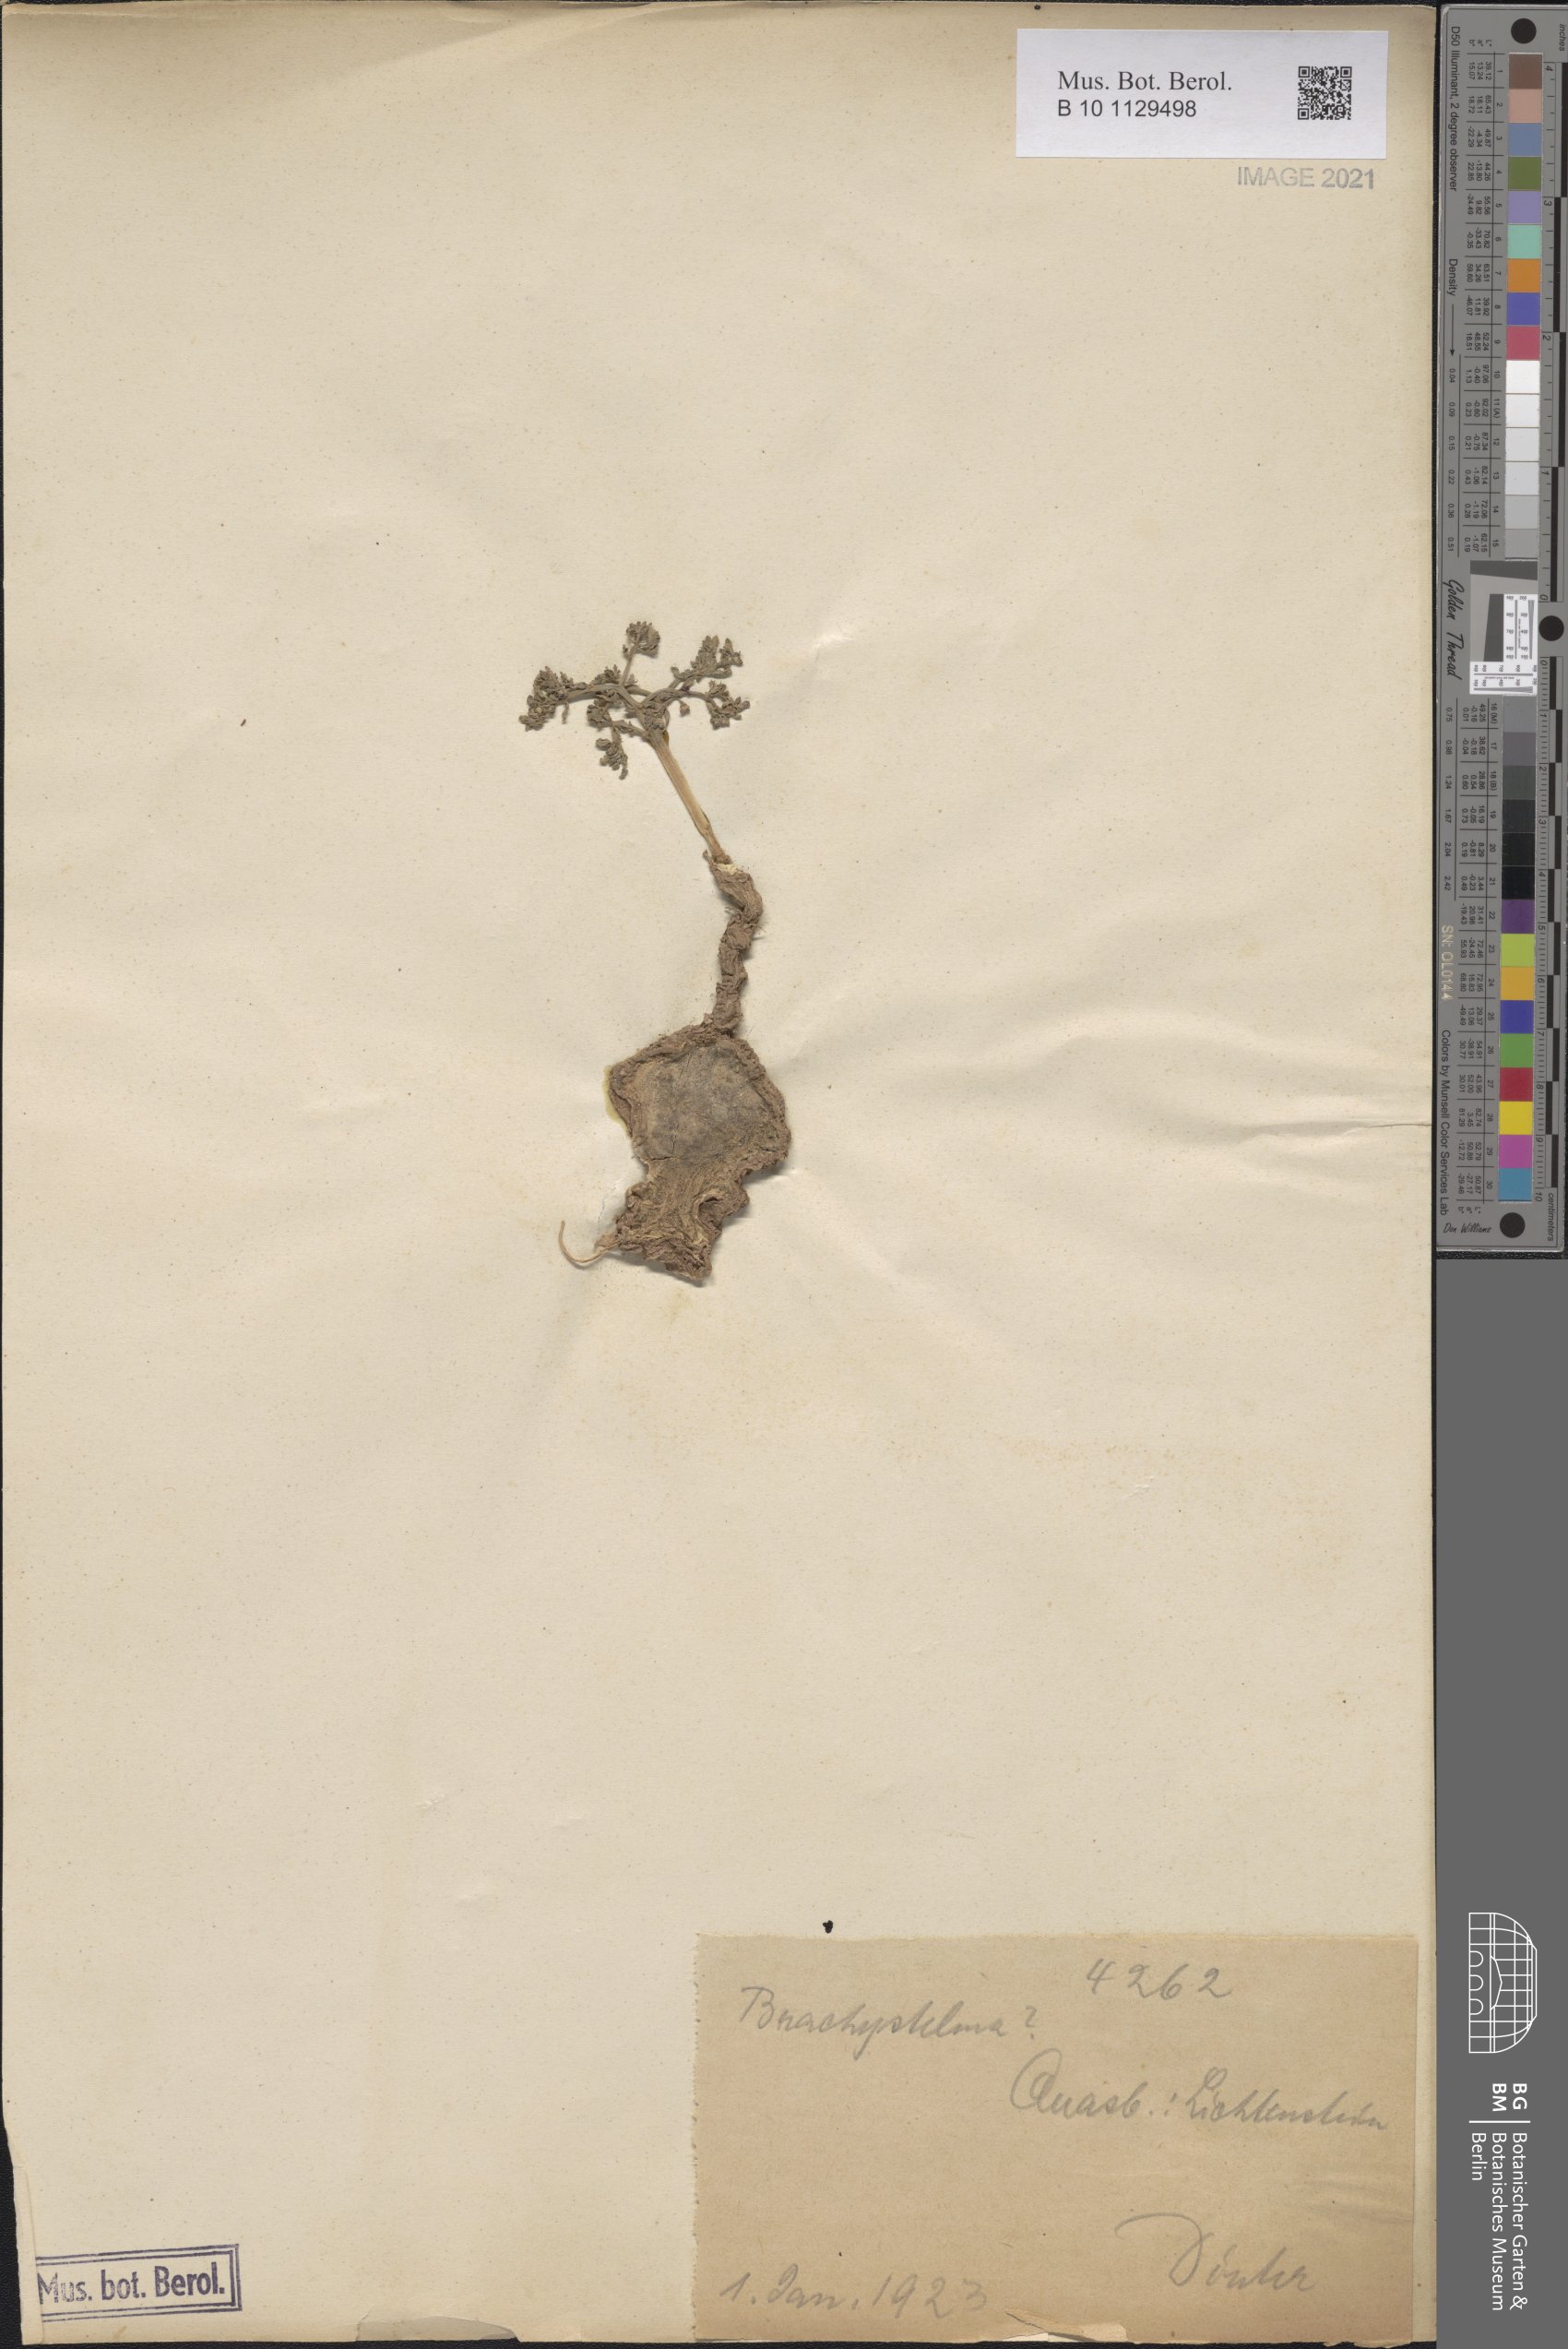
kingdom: Plantae
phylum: Tracheophyta
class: Magnoliopsida
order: Gentianales
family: Apocynaceae
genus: Ceropegia
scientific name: Ceropegia
